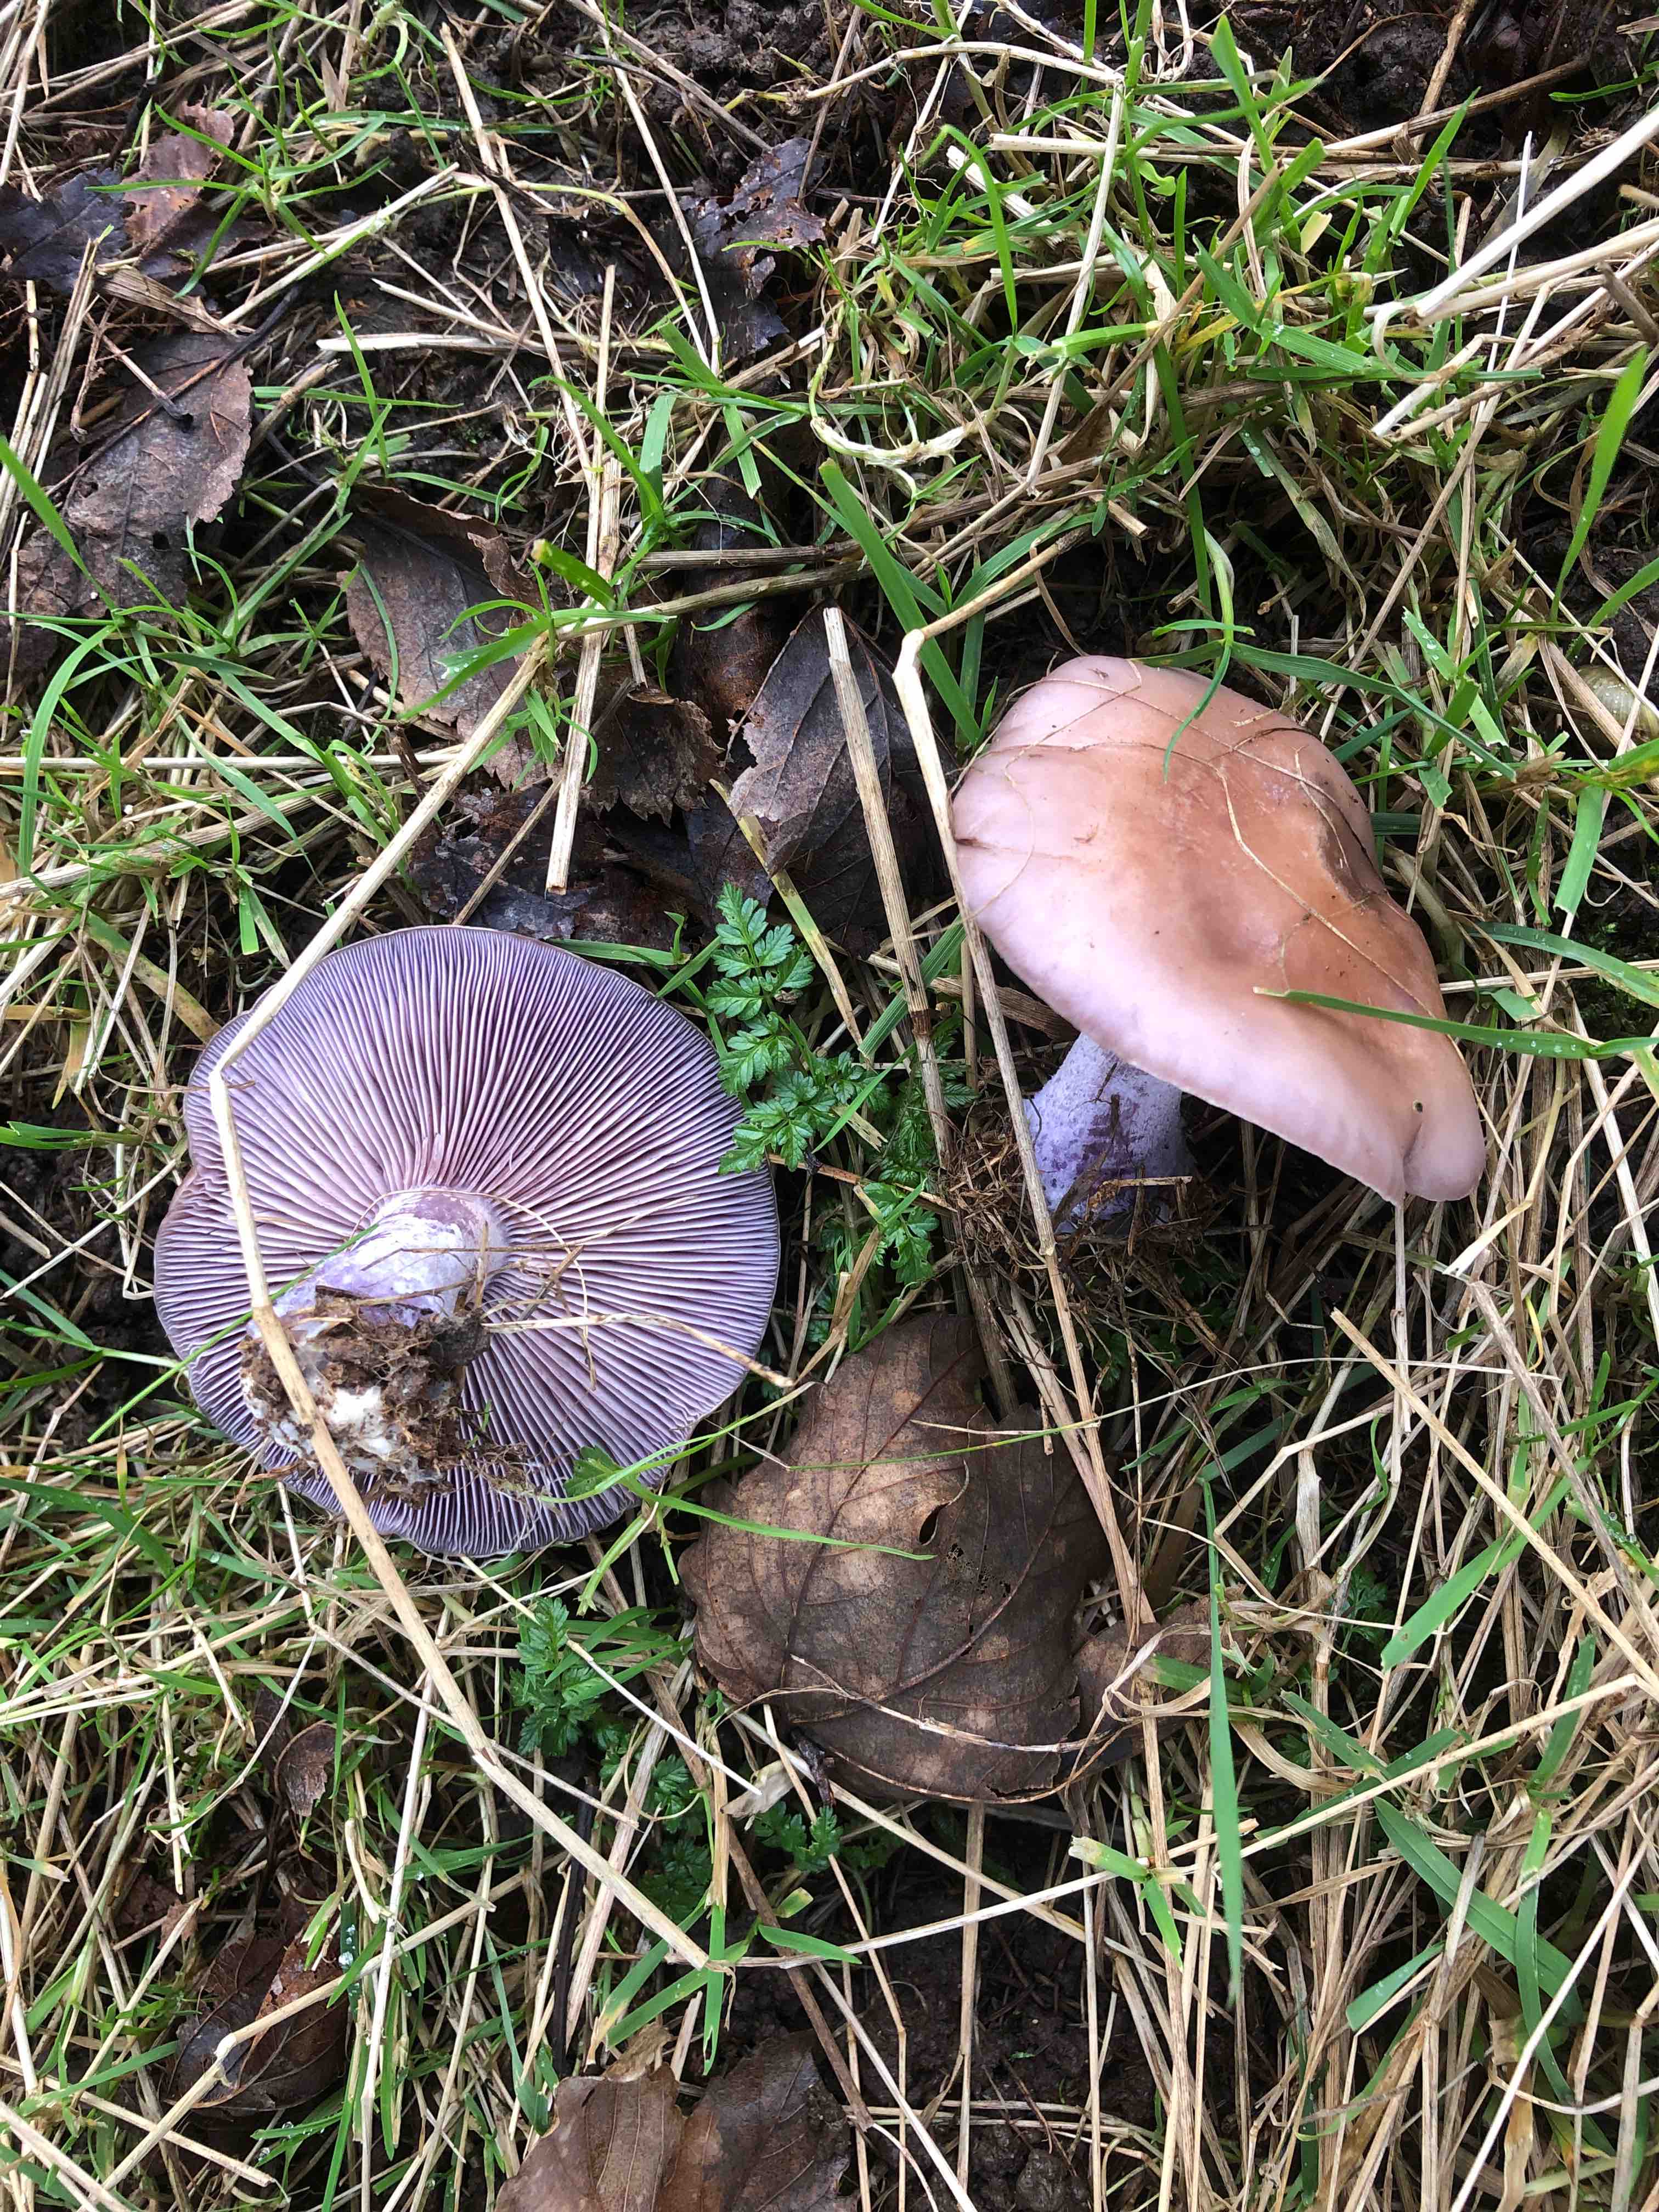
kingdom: Fungi
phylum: Basidiomycota
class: Agaricomycetes
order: Agaricales
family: Tricholomataceae
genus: Lepista
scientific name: Lepista nuda
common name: violet hekseringshat
